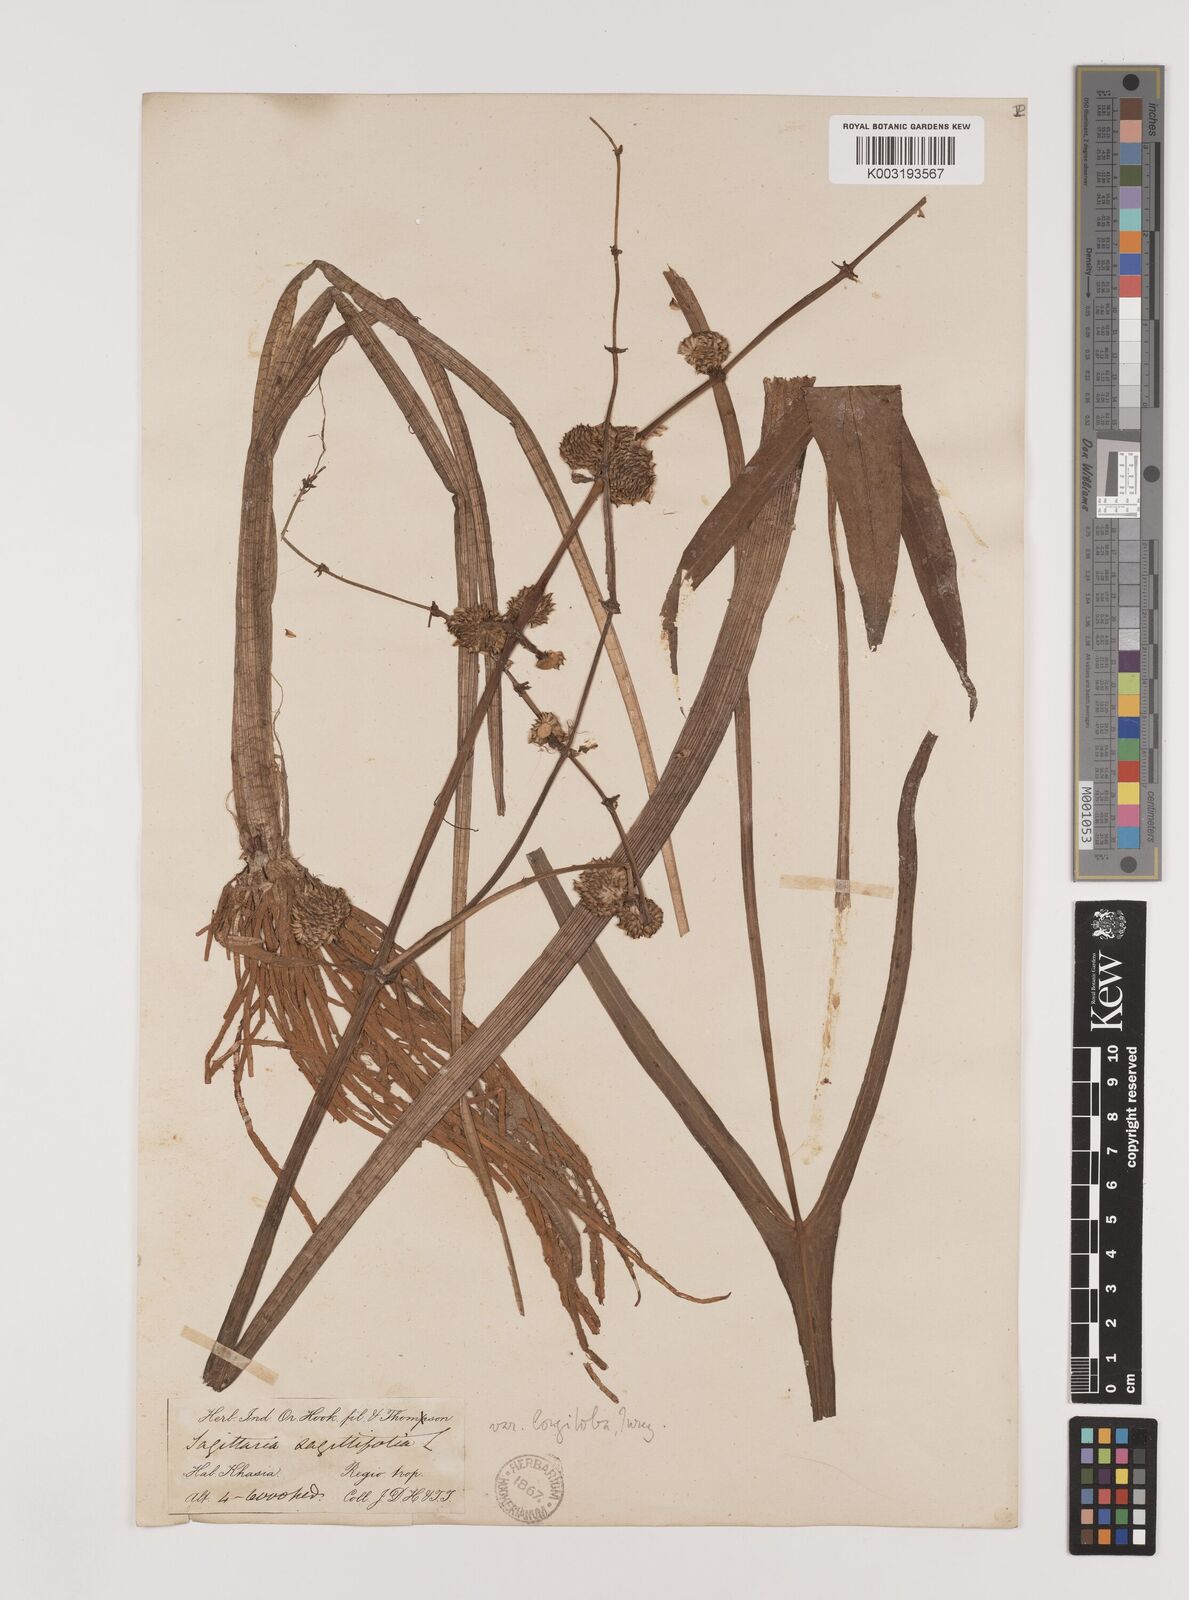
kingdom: Plantae
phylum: Tracheophyta
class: Liliopsida
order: Alismatales
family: Alismataceae
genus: Sagittaria
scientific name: Sagittaria sagittifolia
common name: Arrowhead
